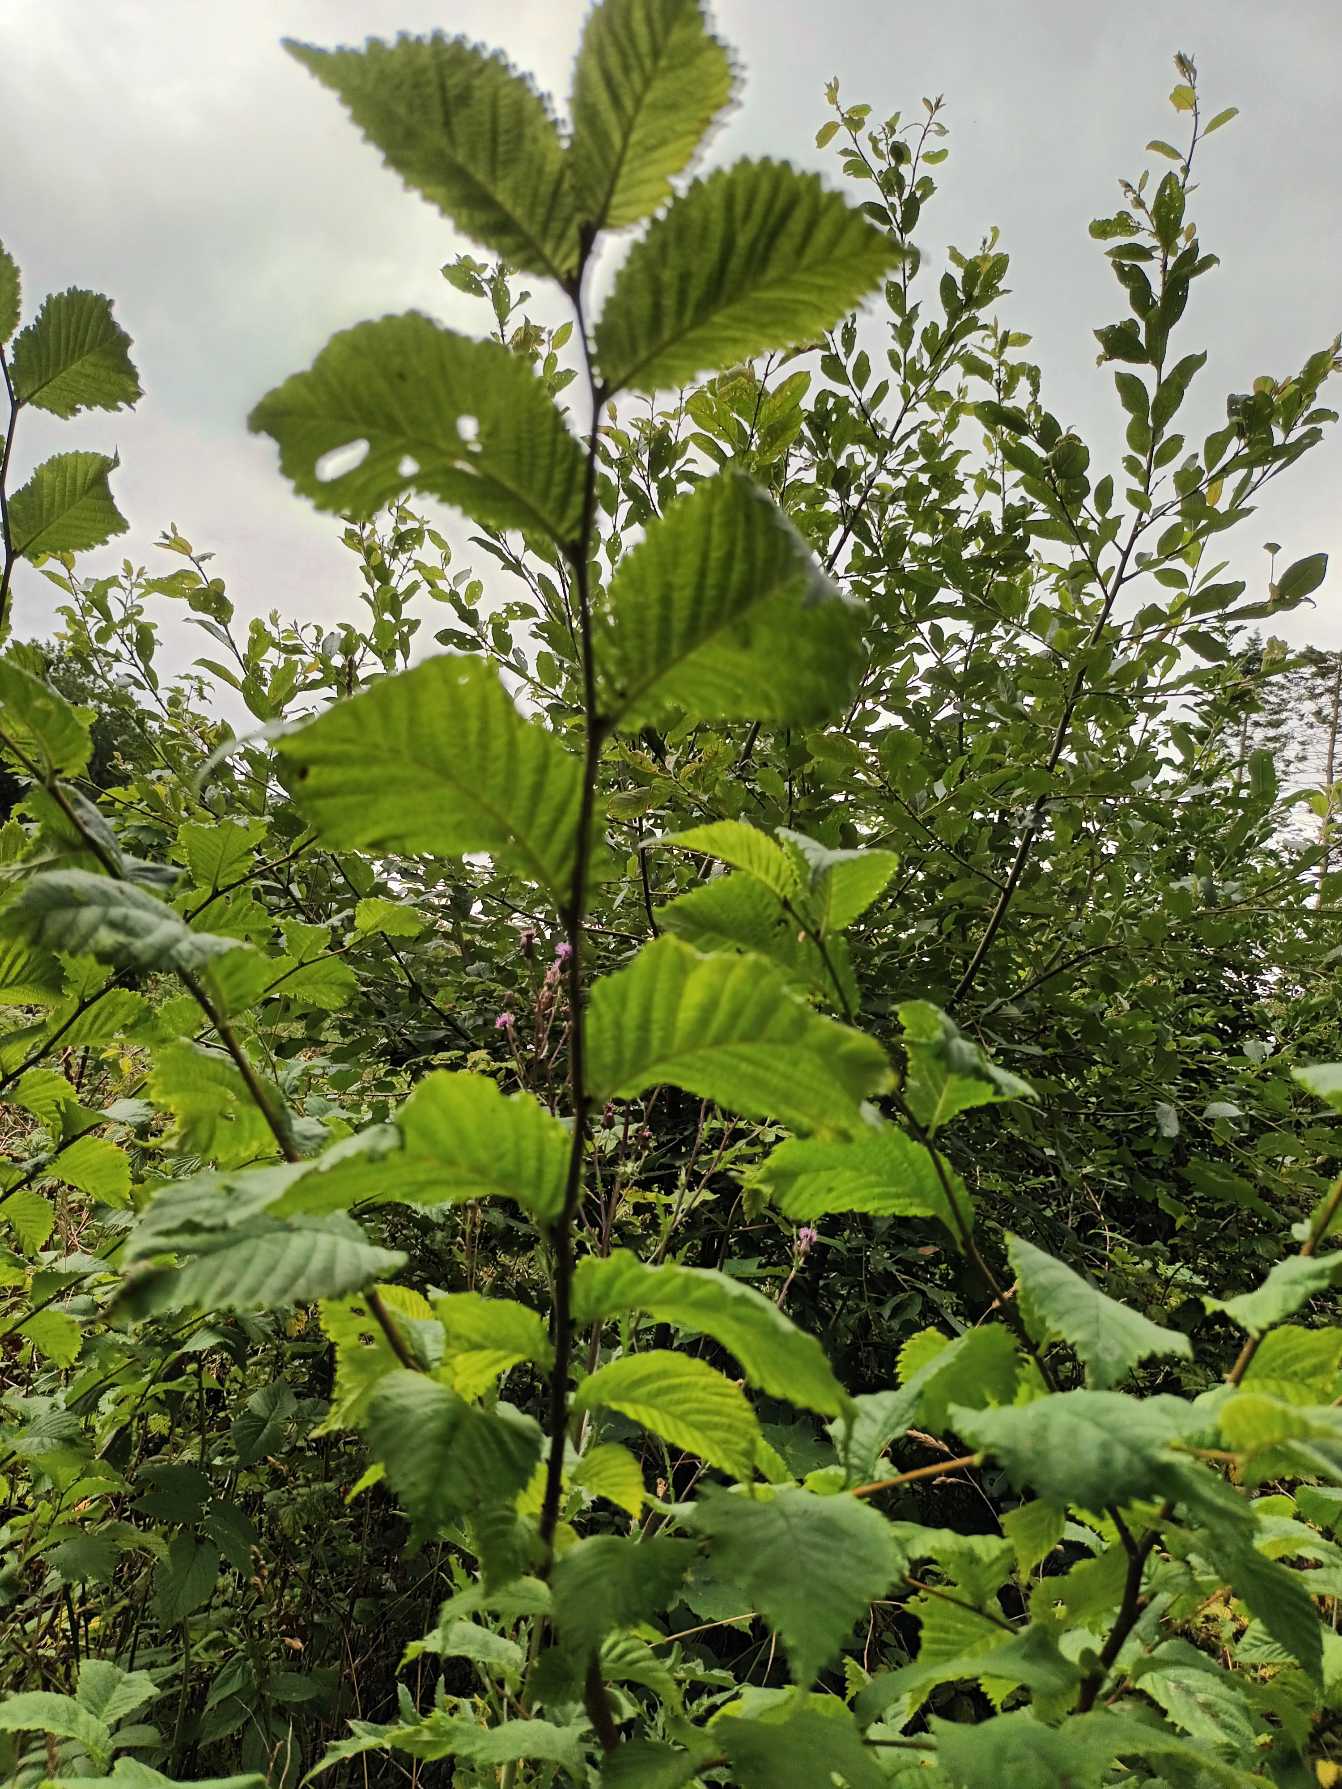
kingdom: Plantae
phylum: Tracheophyta
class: Magnoliopsida
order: Rosales
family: Ulmaceae
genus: Ulmus
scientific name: Ulmus glabra
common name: Skov-elm/storbladet elm
